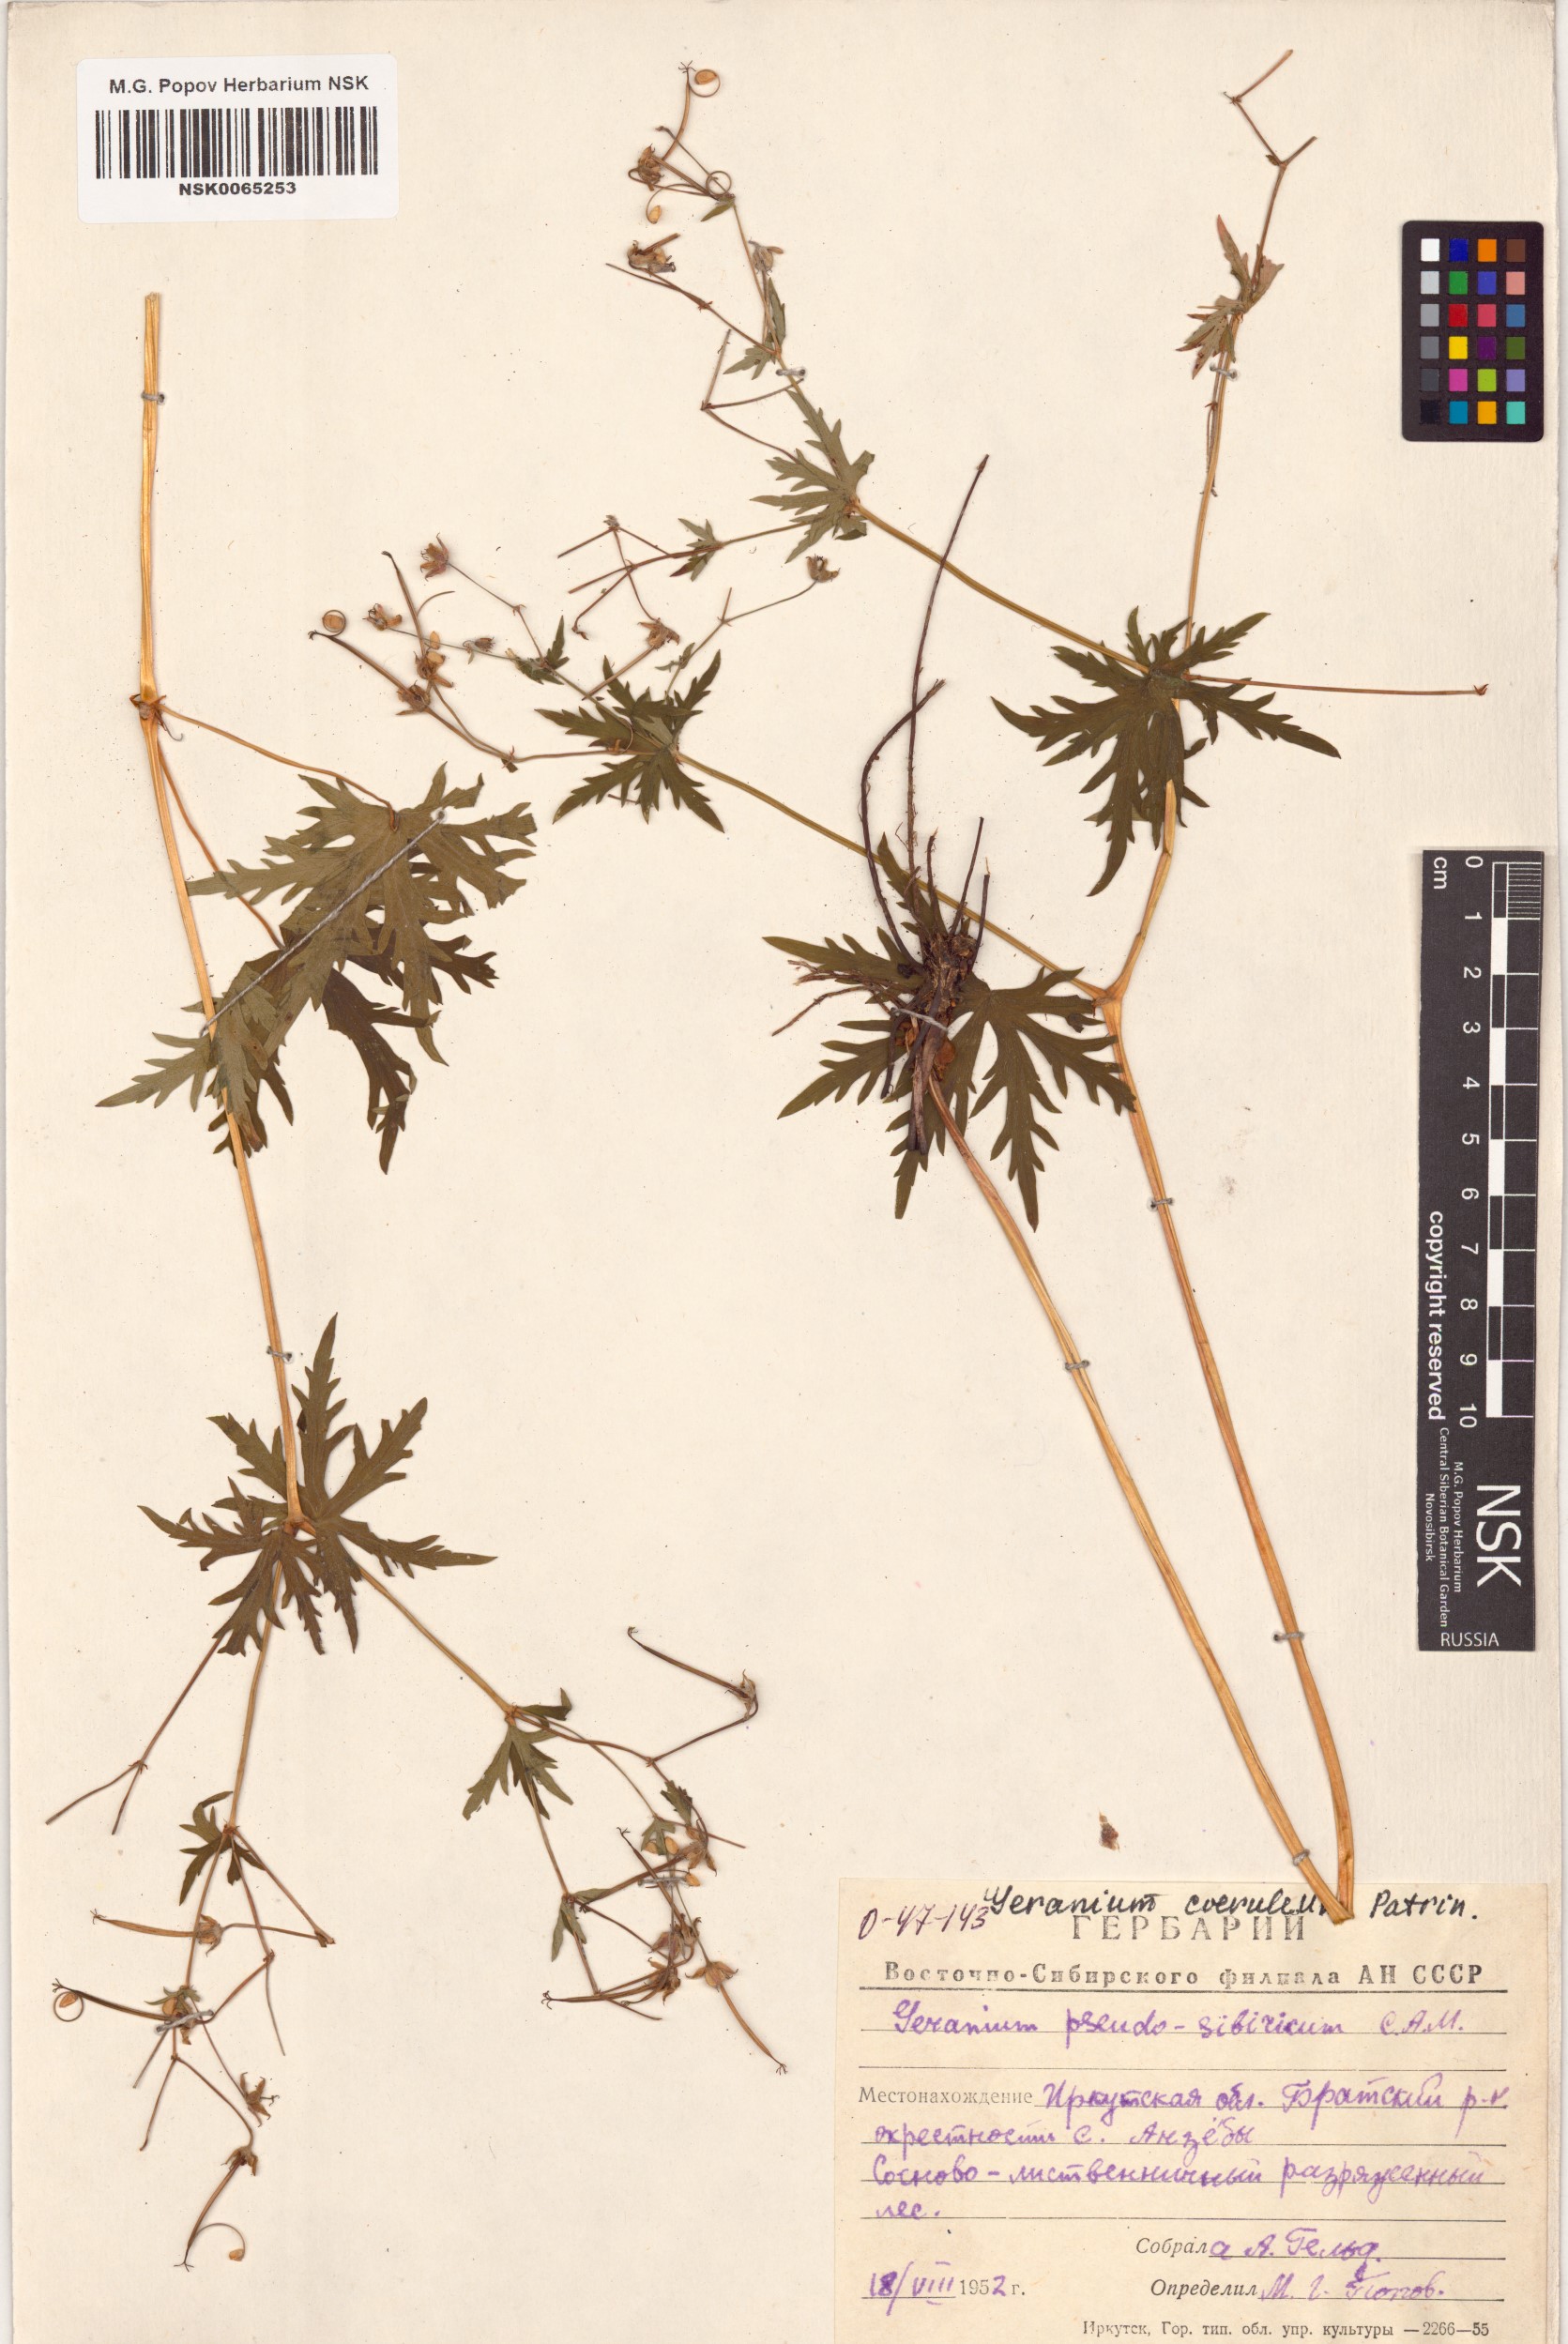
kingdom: Plantae
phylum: Tracheophyta
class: Magnoliopsida
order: Geraniales
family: Geraniaceae
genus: Geranium
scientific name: Geranium pseudosibiricum
